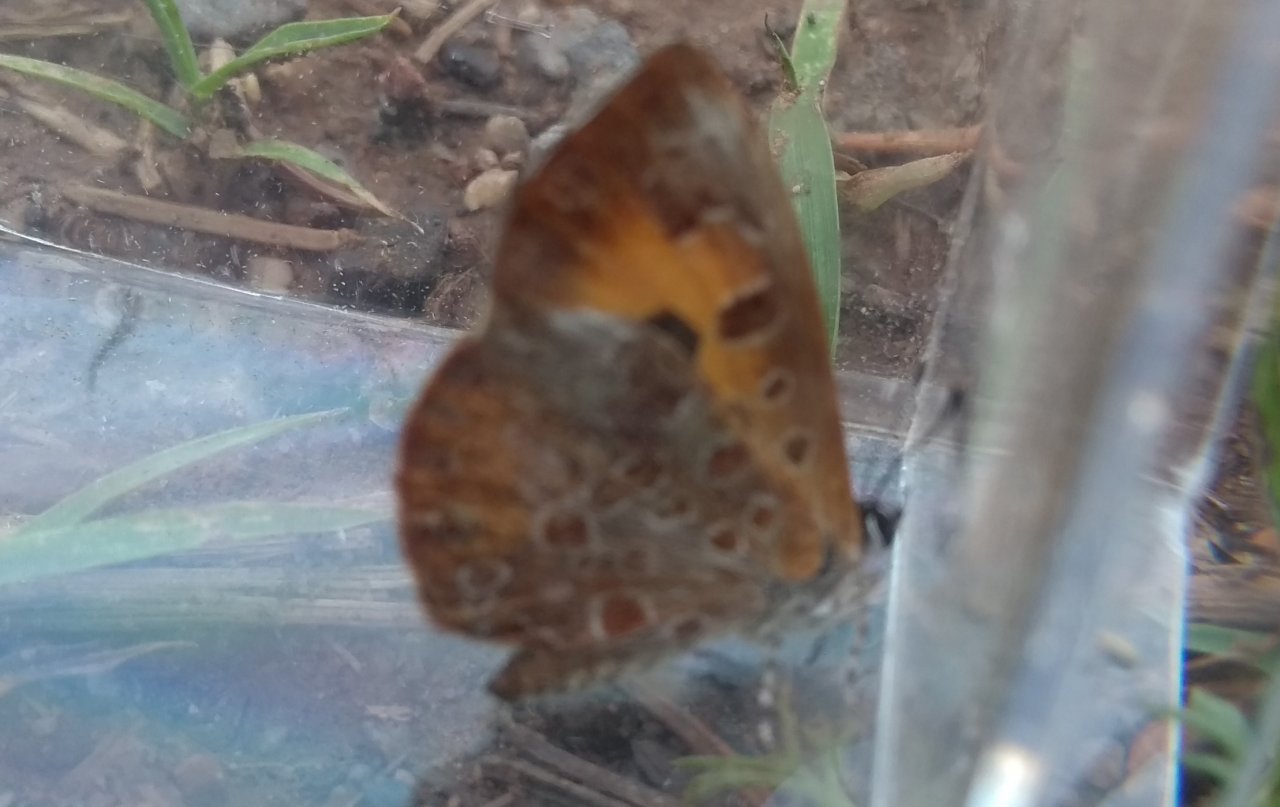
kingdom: Animalia
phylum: Arthropoda
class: Insecta
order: Lepidoptera
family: Lycaenidae
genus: Feniseca
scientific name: Feniseca tarquinius
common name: Harvester
